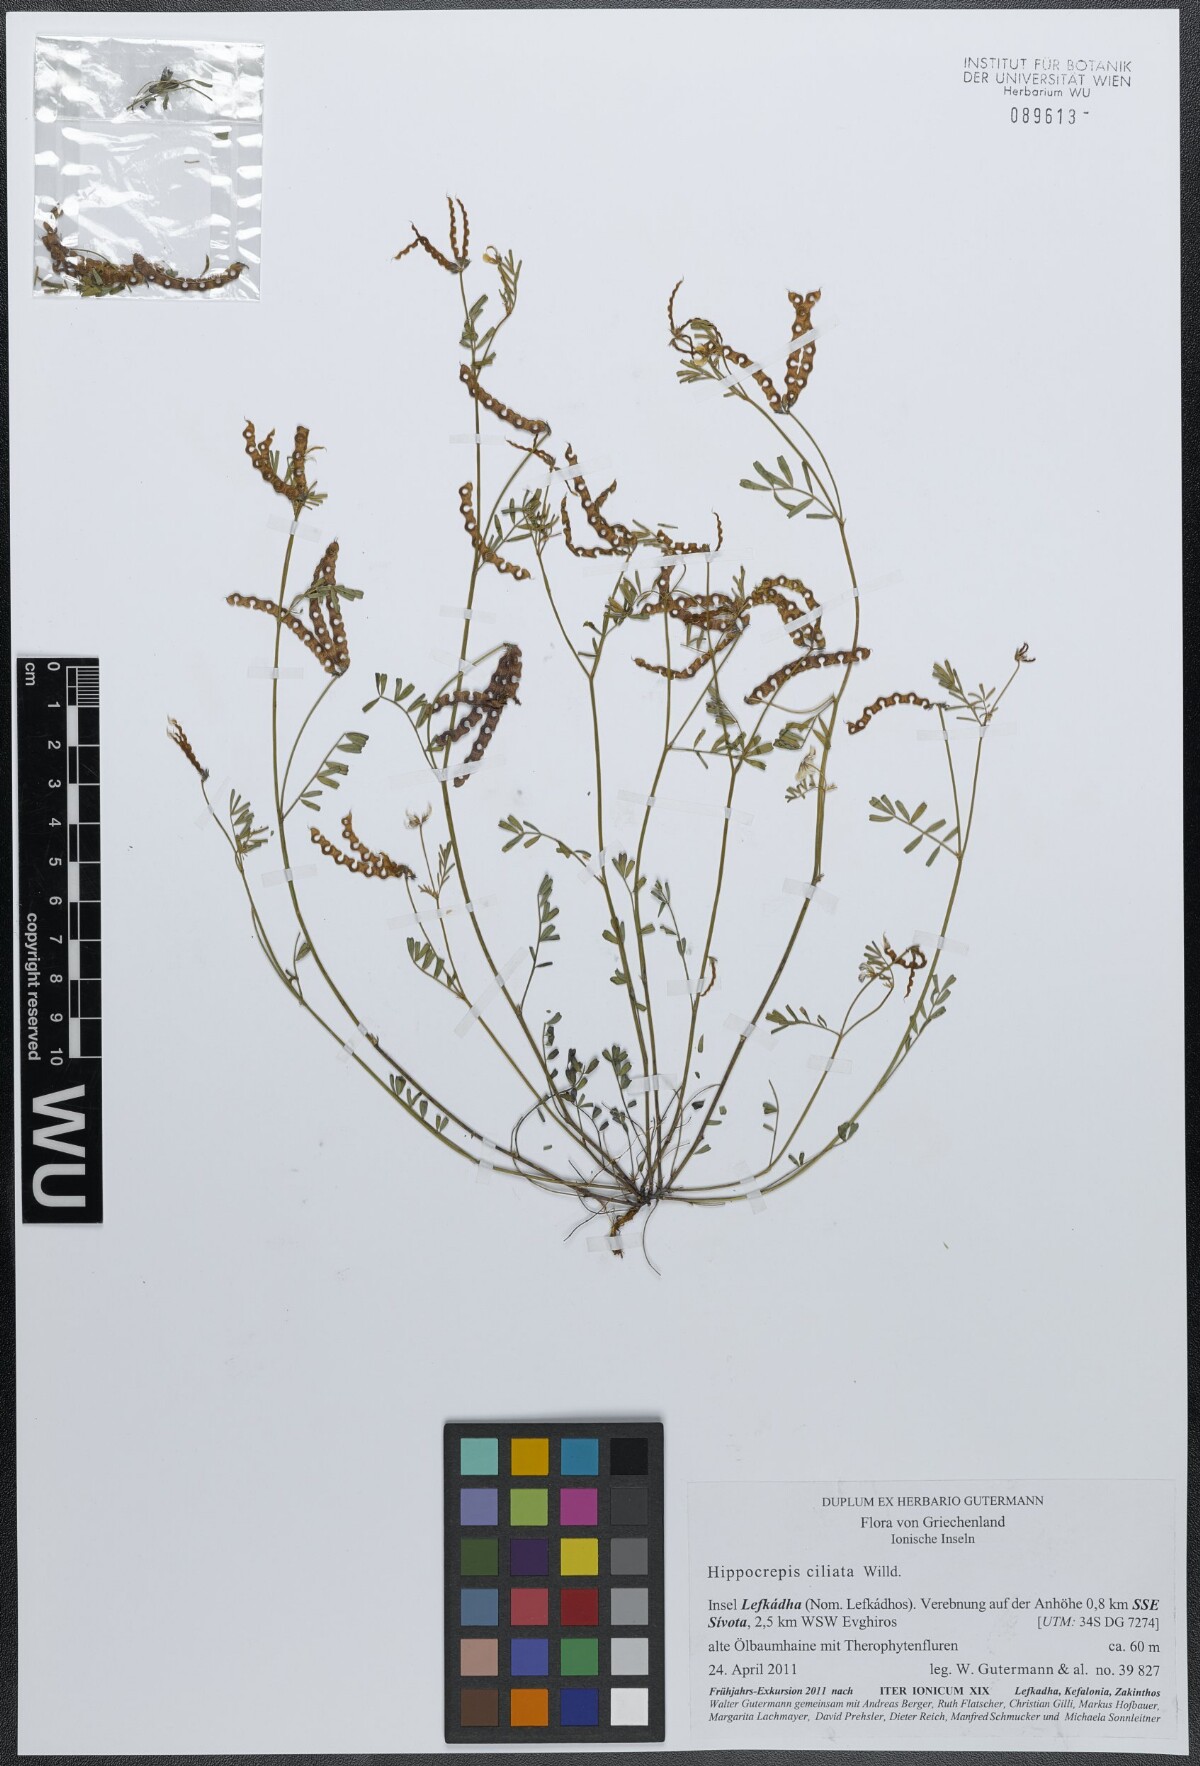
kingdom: Plantae
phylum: Tracheophyta
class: Magnoliopsida
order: Fabales
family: Fabaceae
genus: Hippocrepis
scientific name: Hippocrepis ciliata
